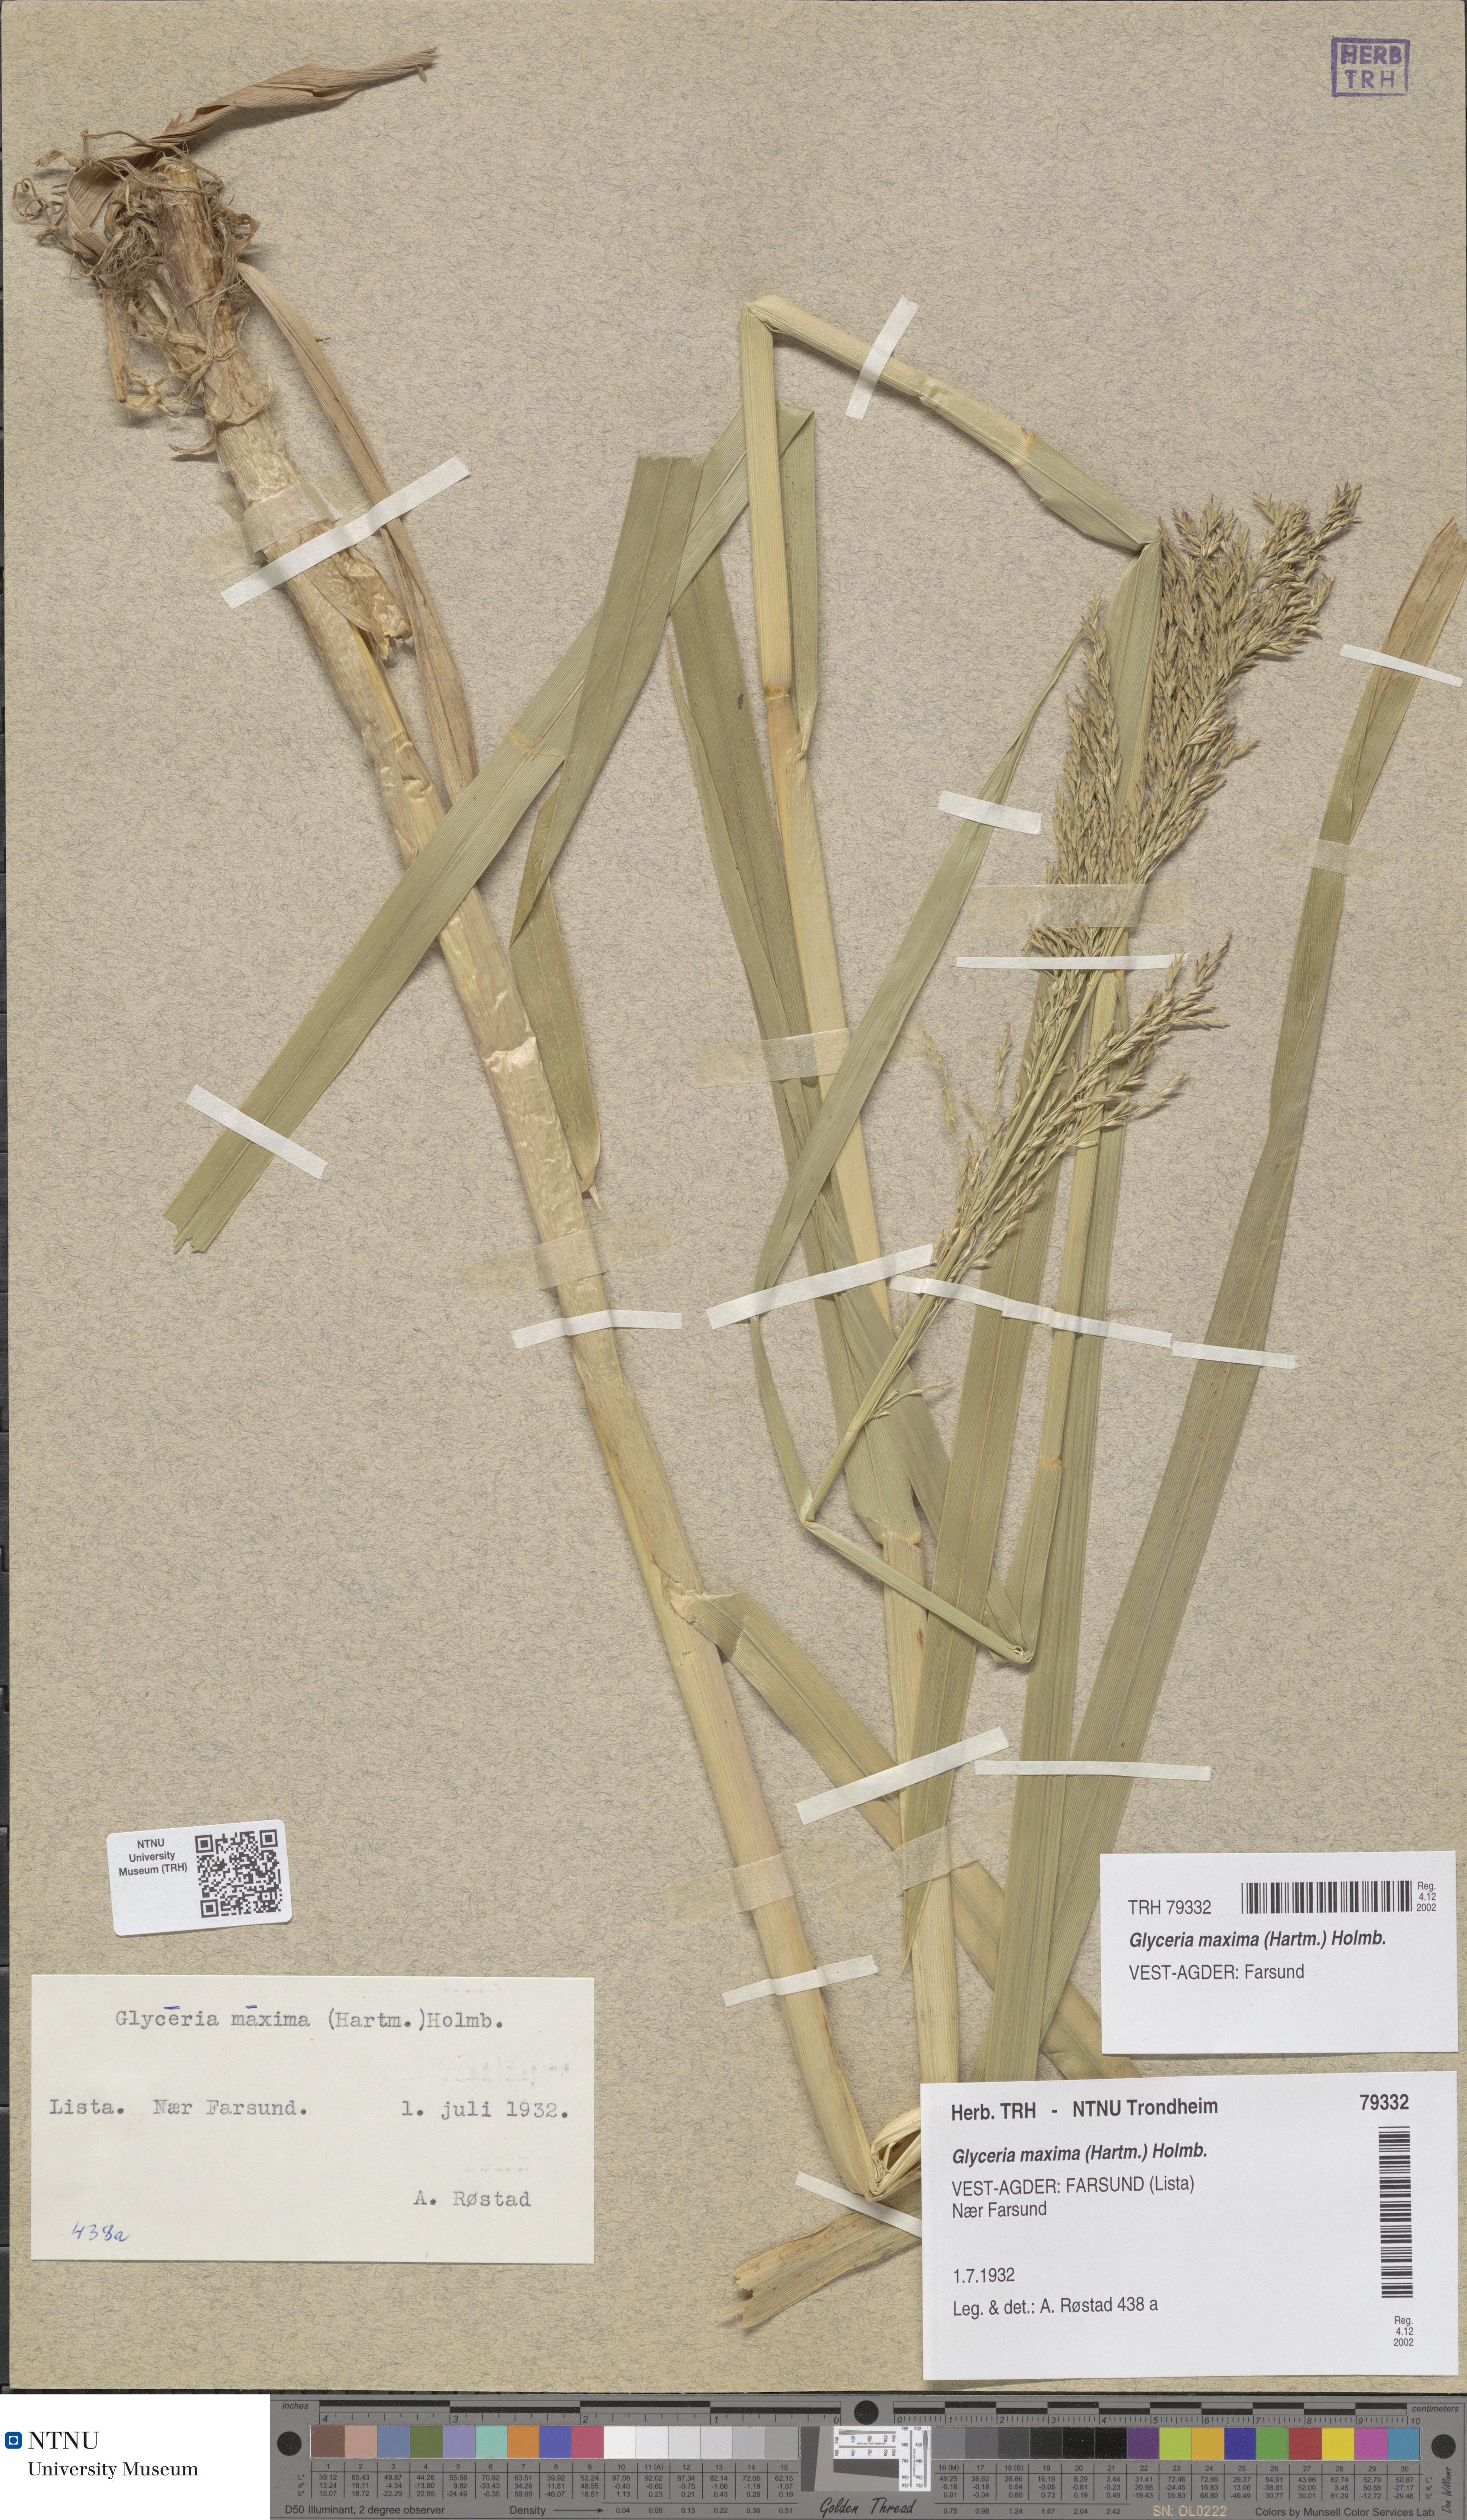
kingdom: Plantae
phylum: Tracheophyta
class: Liliopsida
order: Poales
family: Poaceae
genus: Glyceria
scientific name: Glyceria maxima
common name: Reed mannagrass
